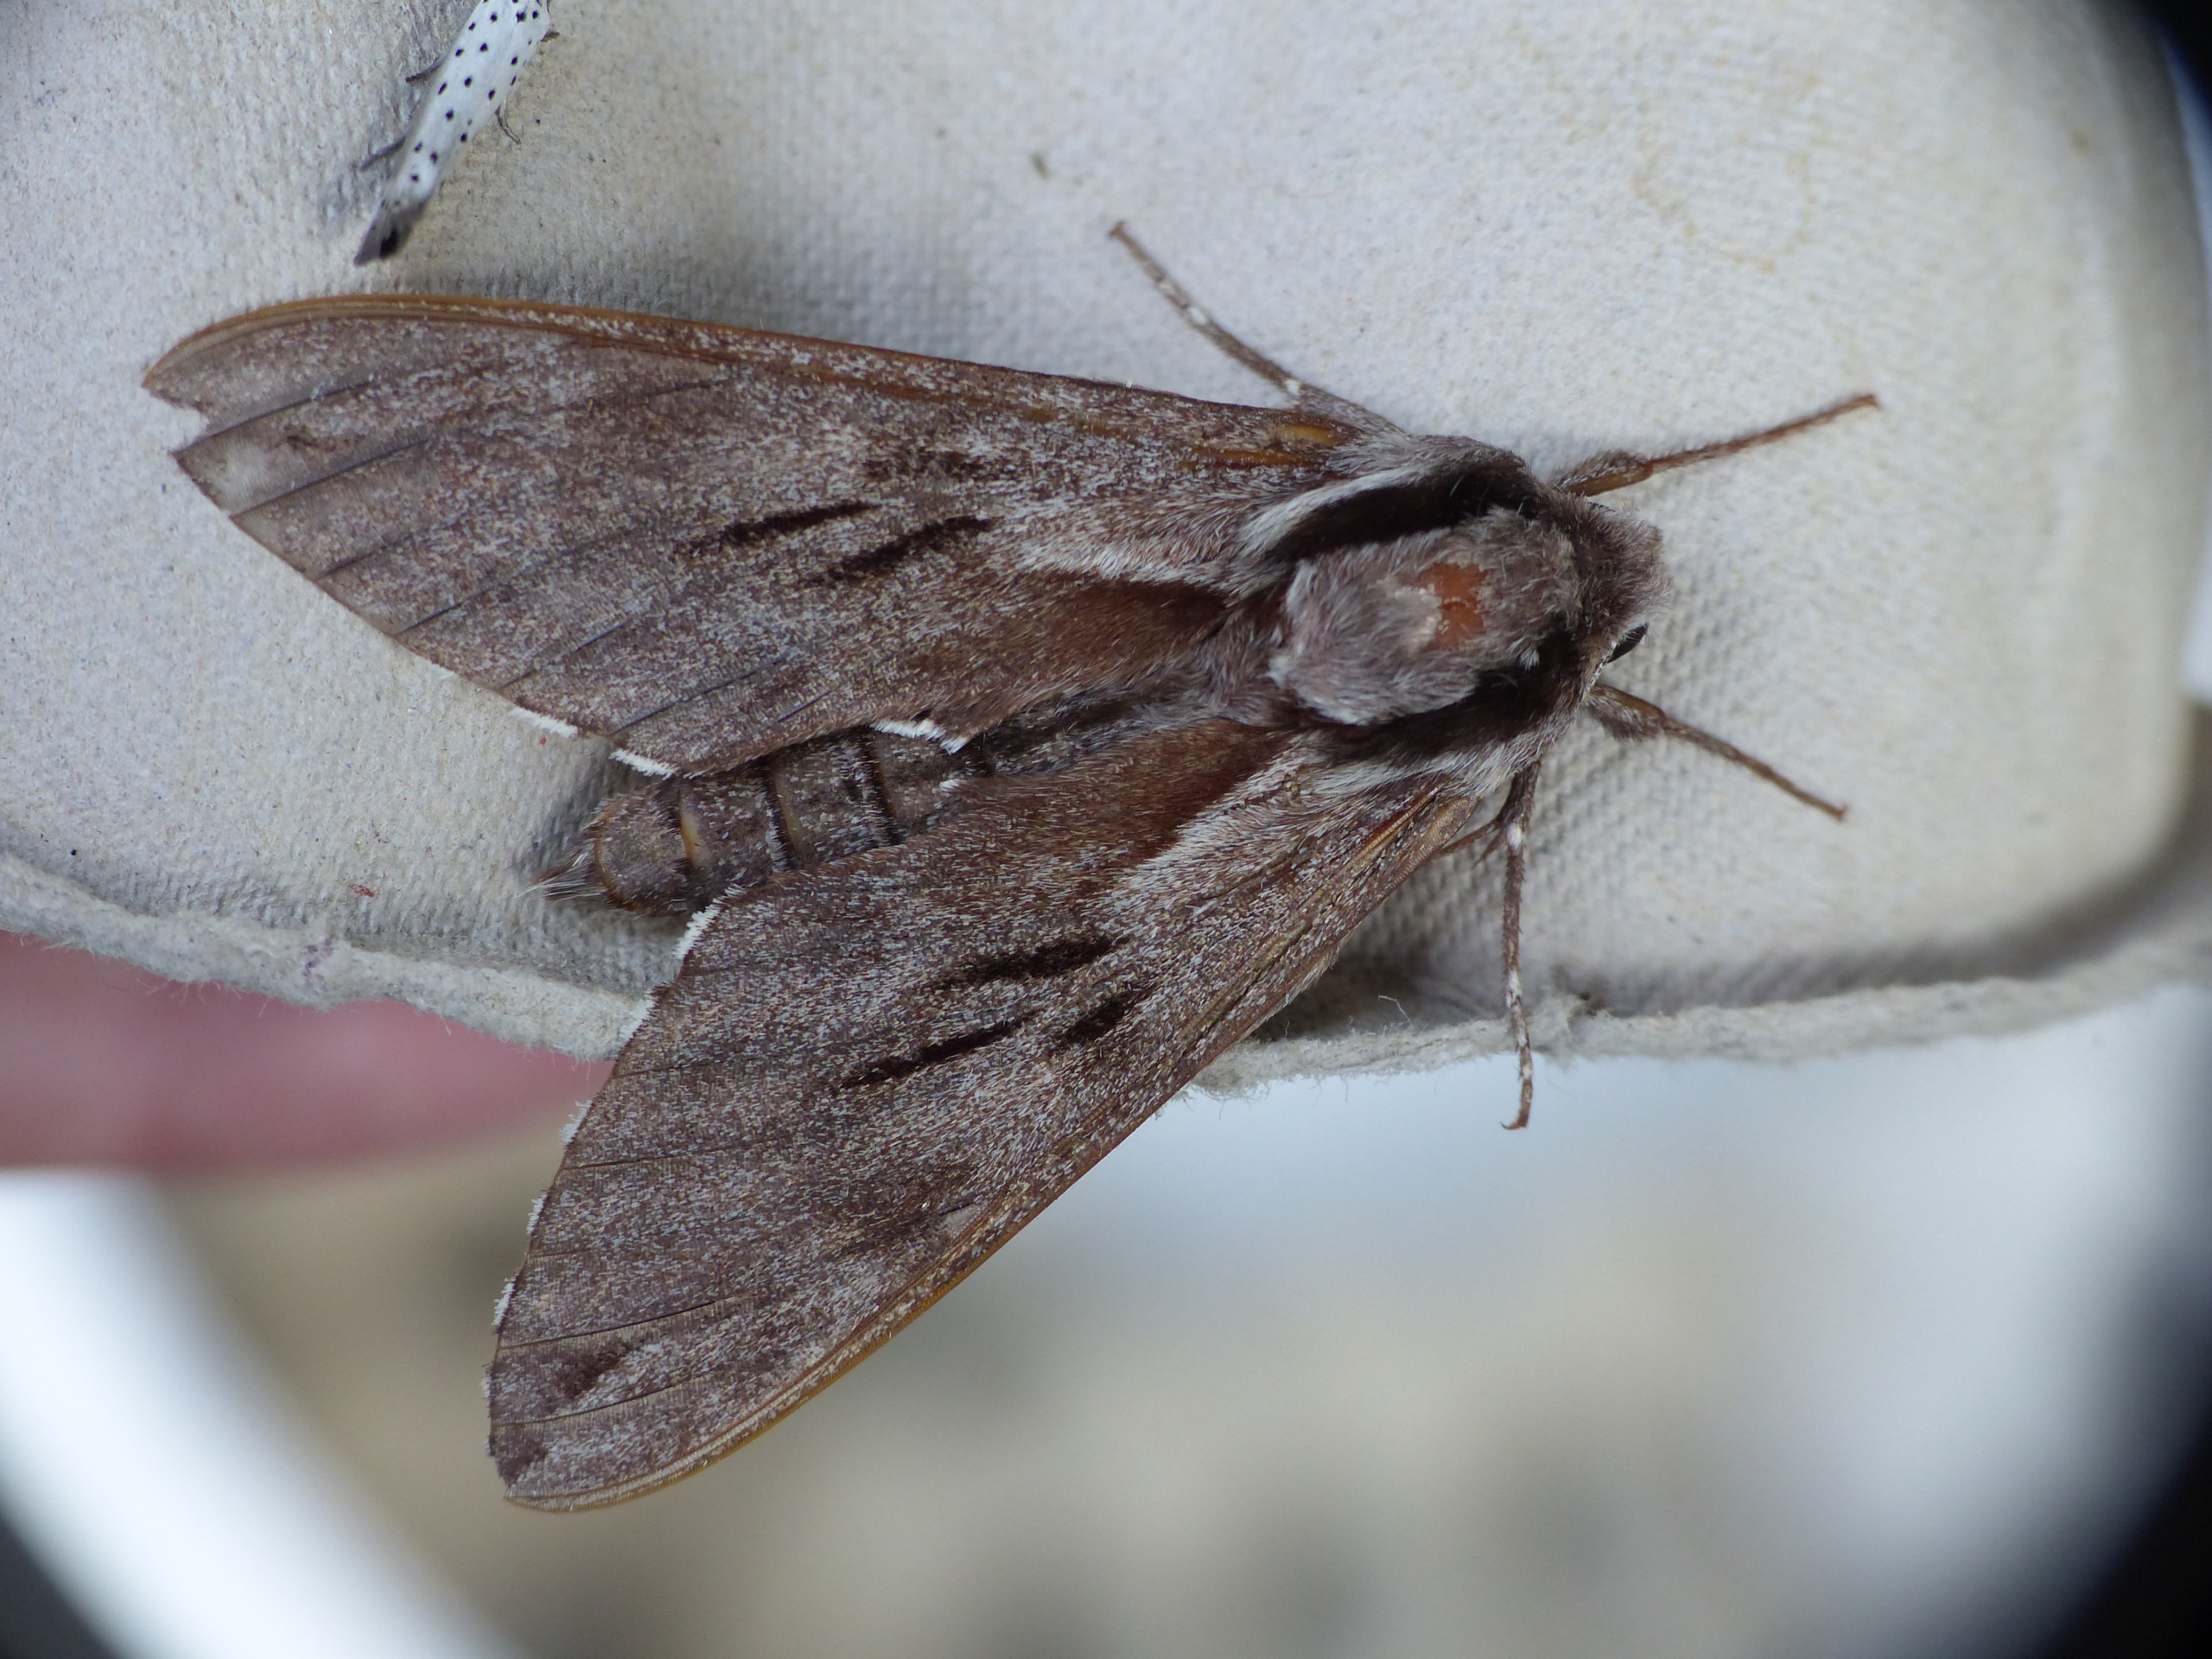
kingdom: Animalia
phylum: Arthropoda
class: Insecta
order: Lepidoptera
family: Sphingidae
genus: Sphinx
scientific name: Sphinx pinastri
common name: Fyrresværmer
